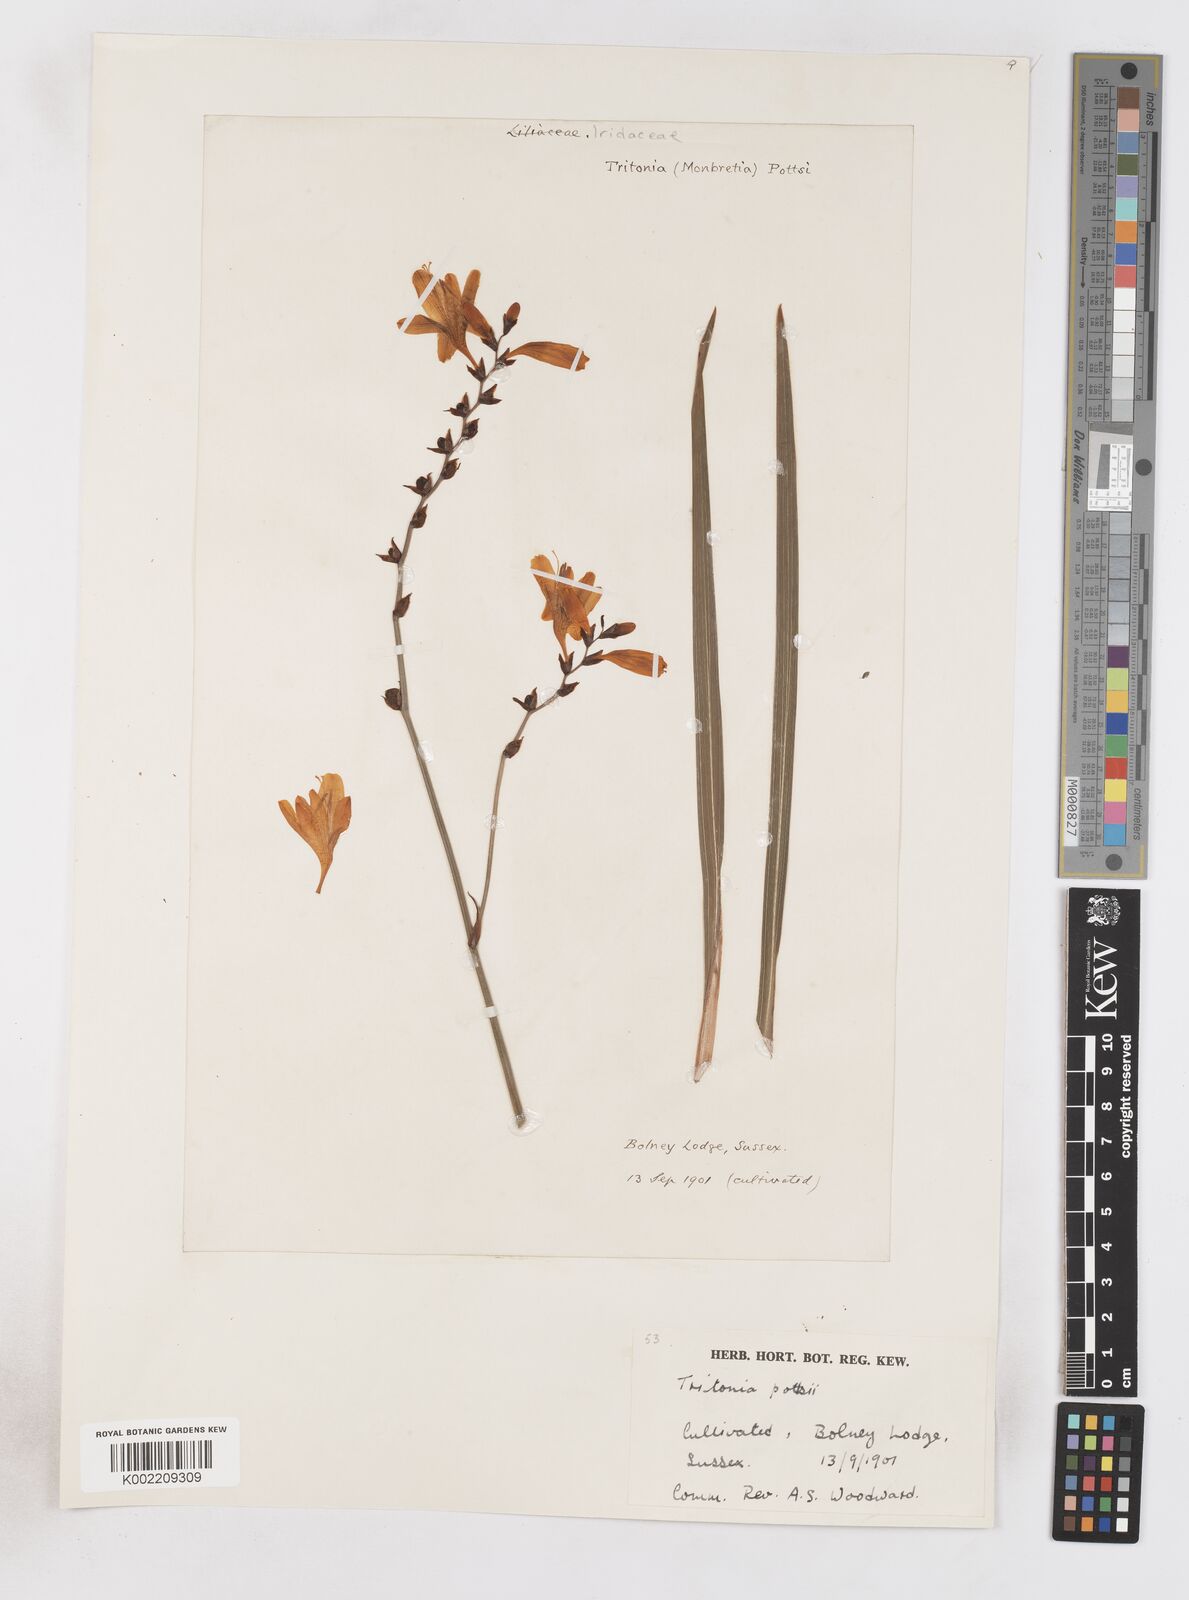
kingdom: Plantae
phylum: Tracheophyta
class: Liliopsida
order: Asparagales
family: Iridaceae
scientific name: Iridaceae
